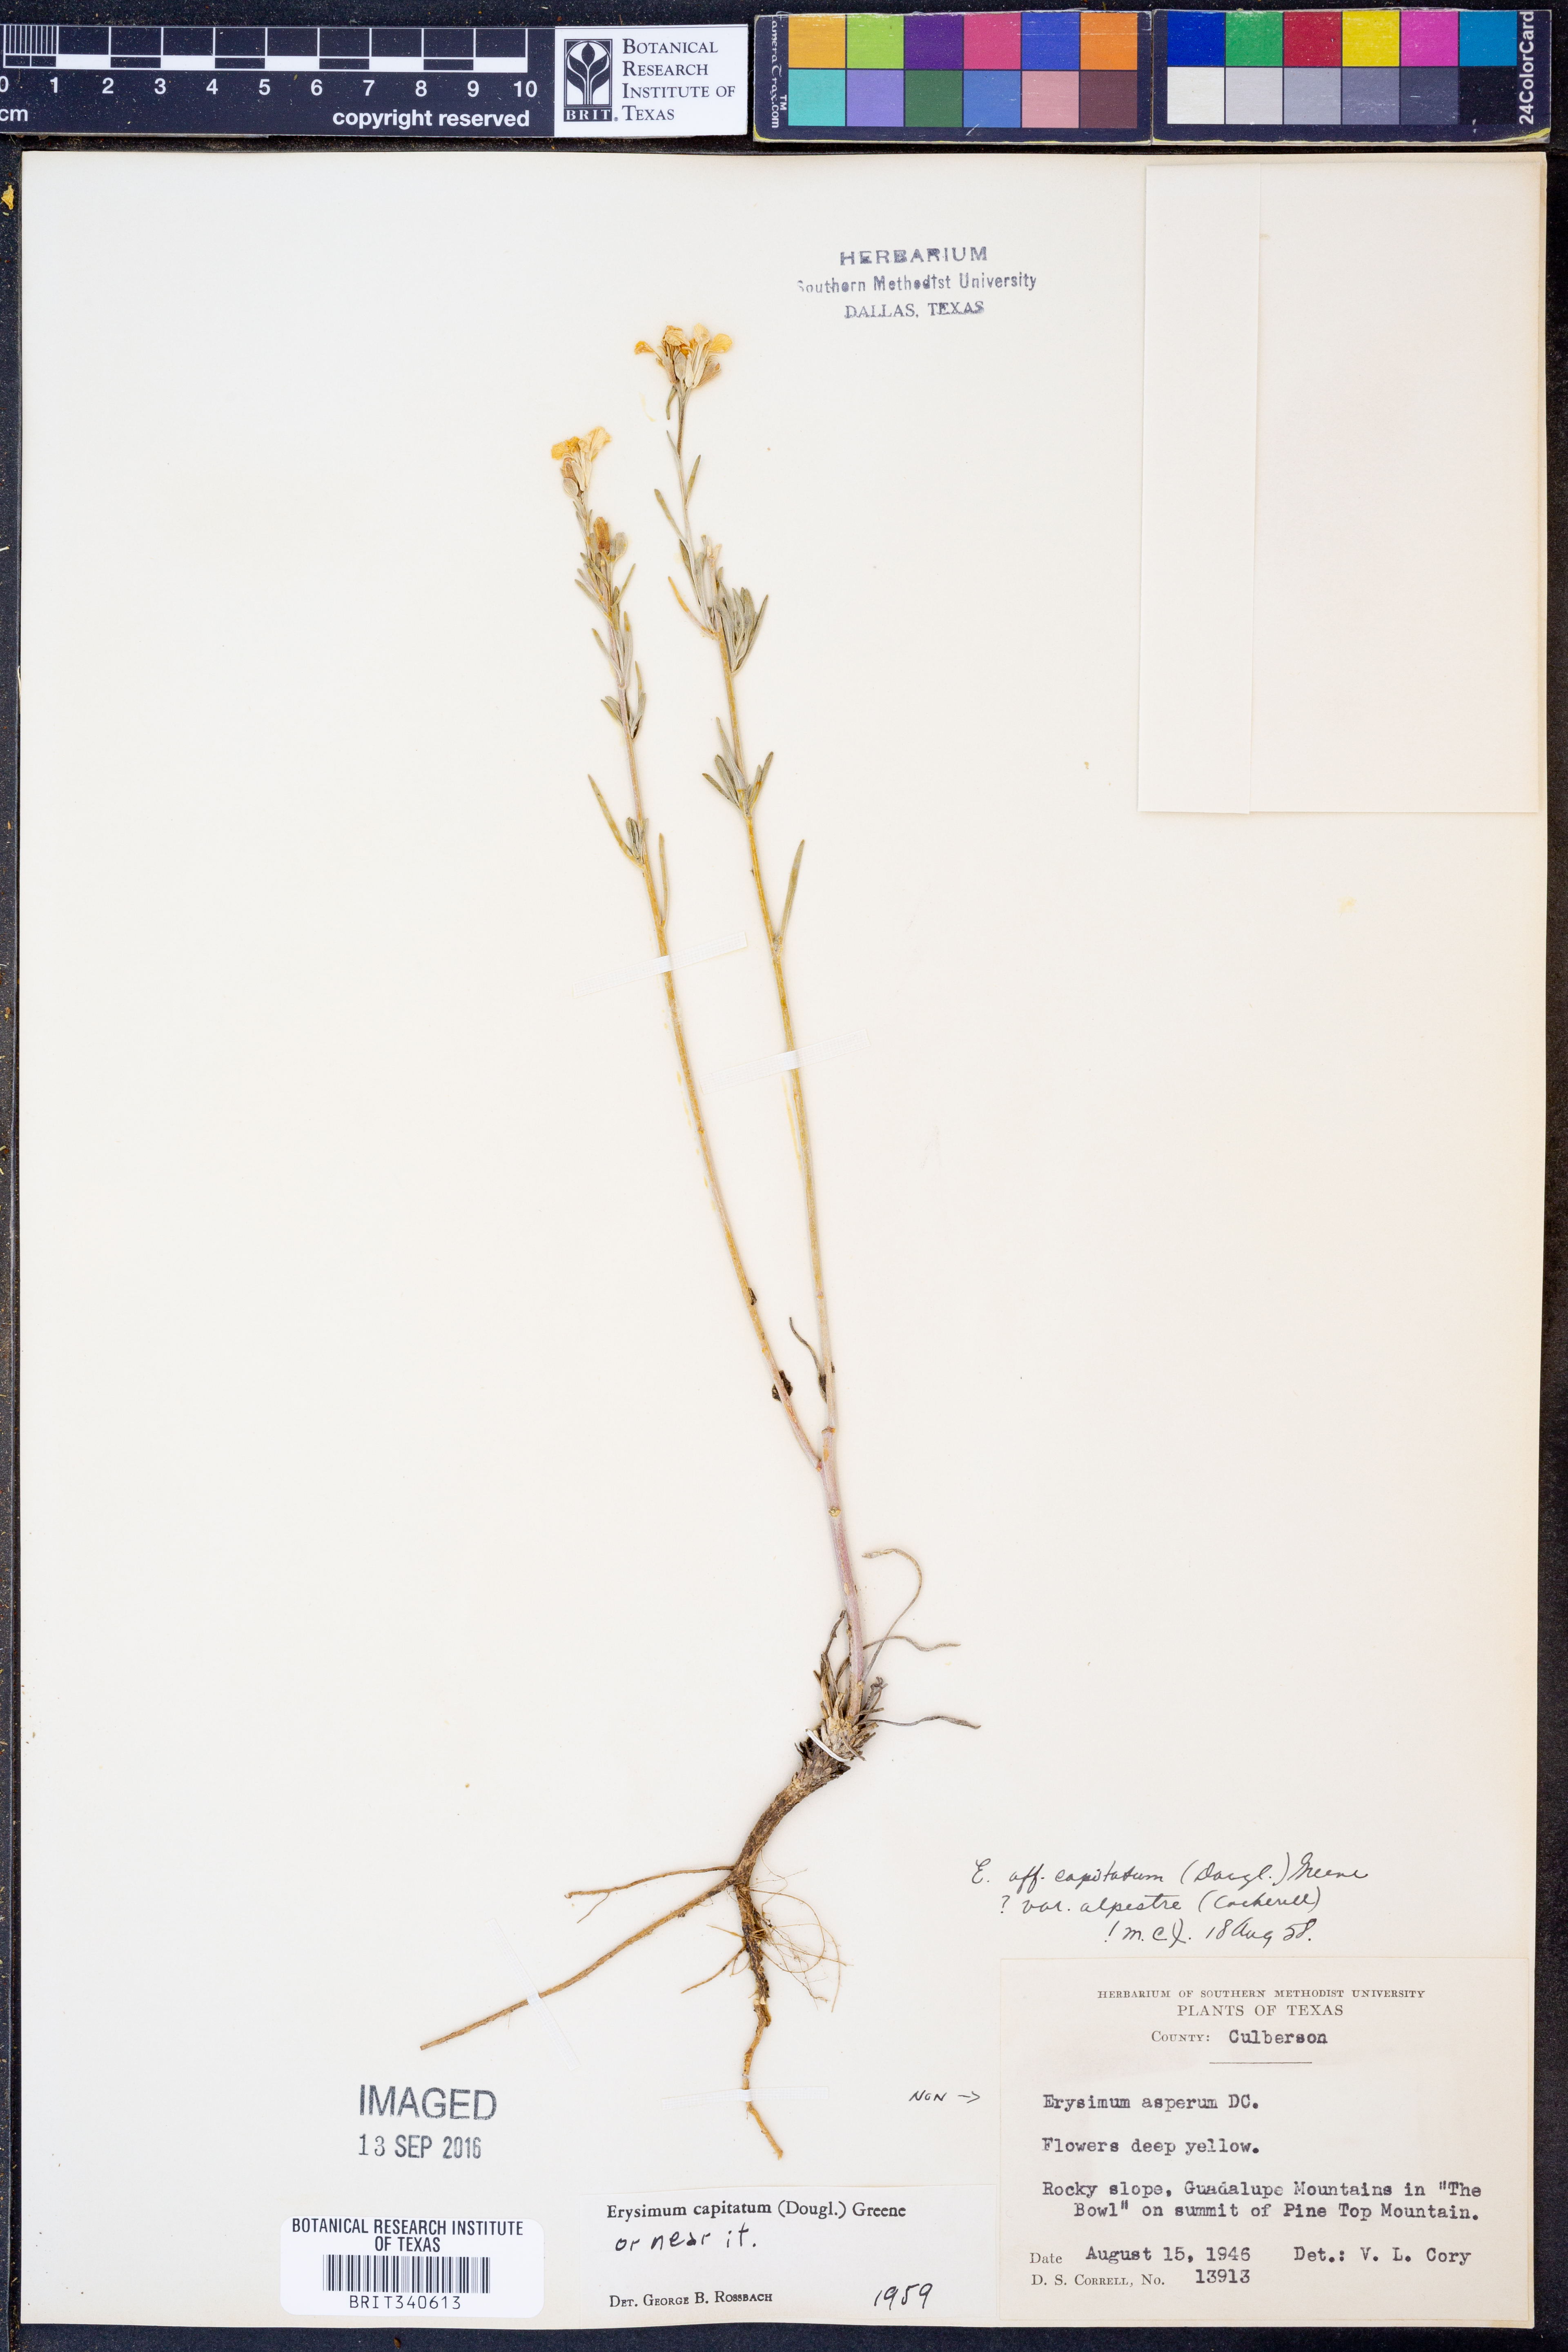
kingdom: Plantae
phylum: Tracheophyta
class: Magnoliopsida
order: Brassicales
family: Brassicaceae
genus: Erysimum
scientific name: Erysimum capitatum
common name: Western wallflower
